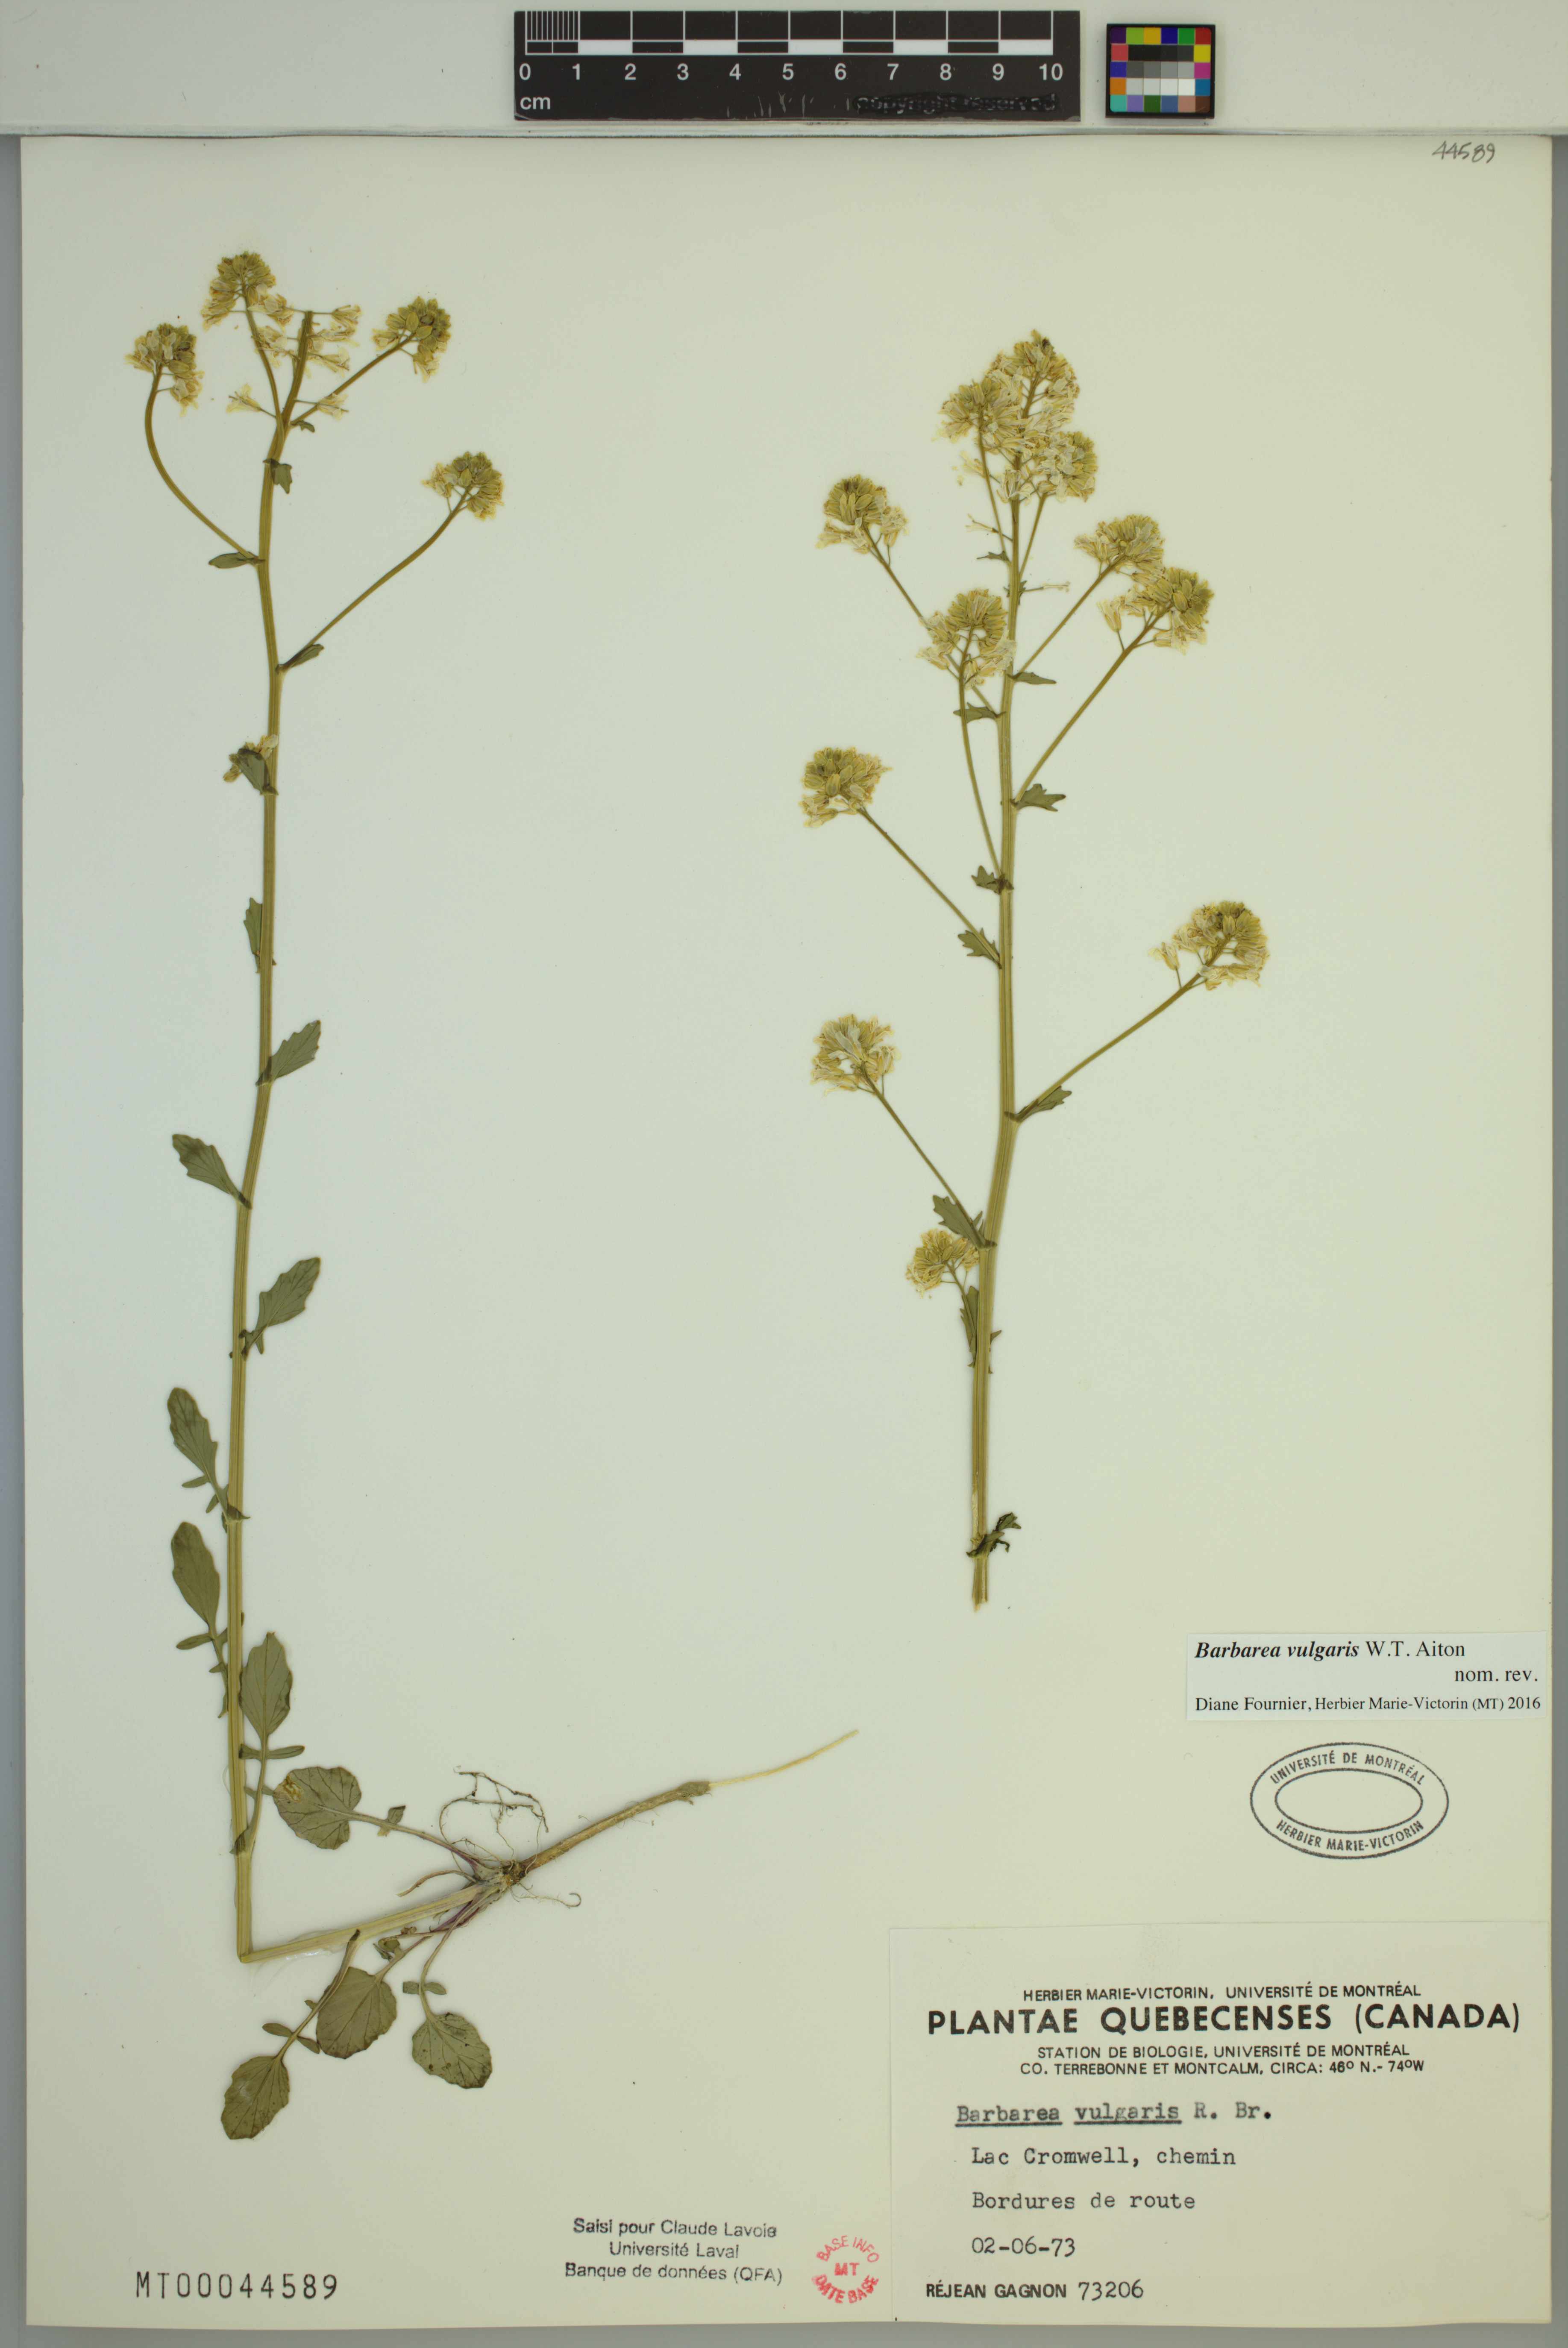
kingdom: Plantae
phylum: Tracheophyta
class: Magnoliopsida
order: Brassicales
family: Brassicaceae
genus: Barbarea
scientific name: Barbarea vulgaris
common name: Cressy-greens
